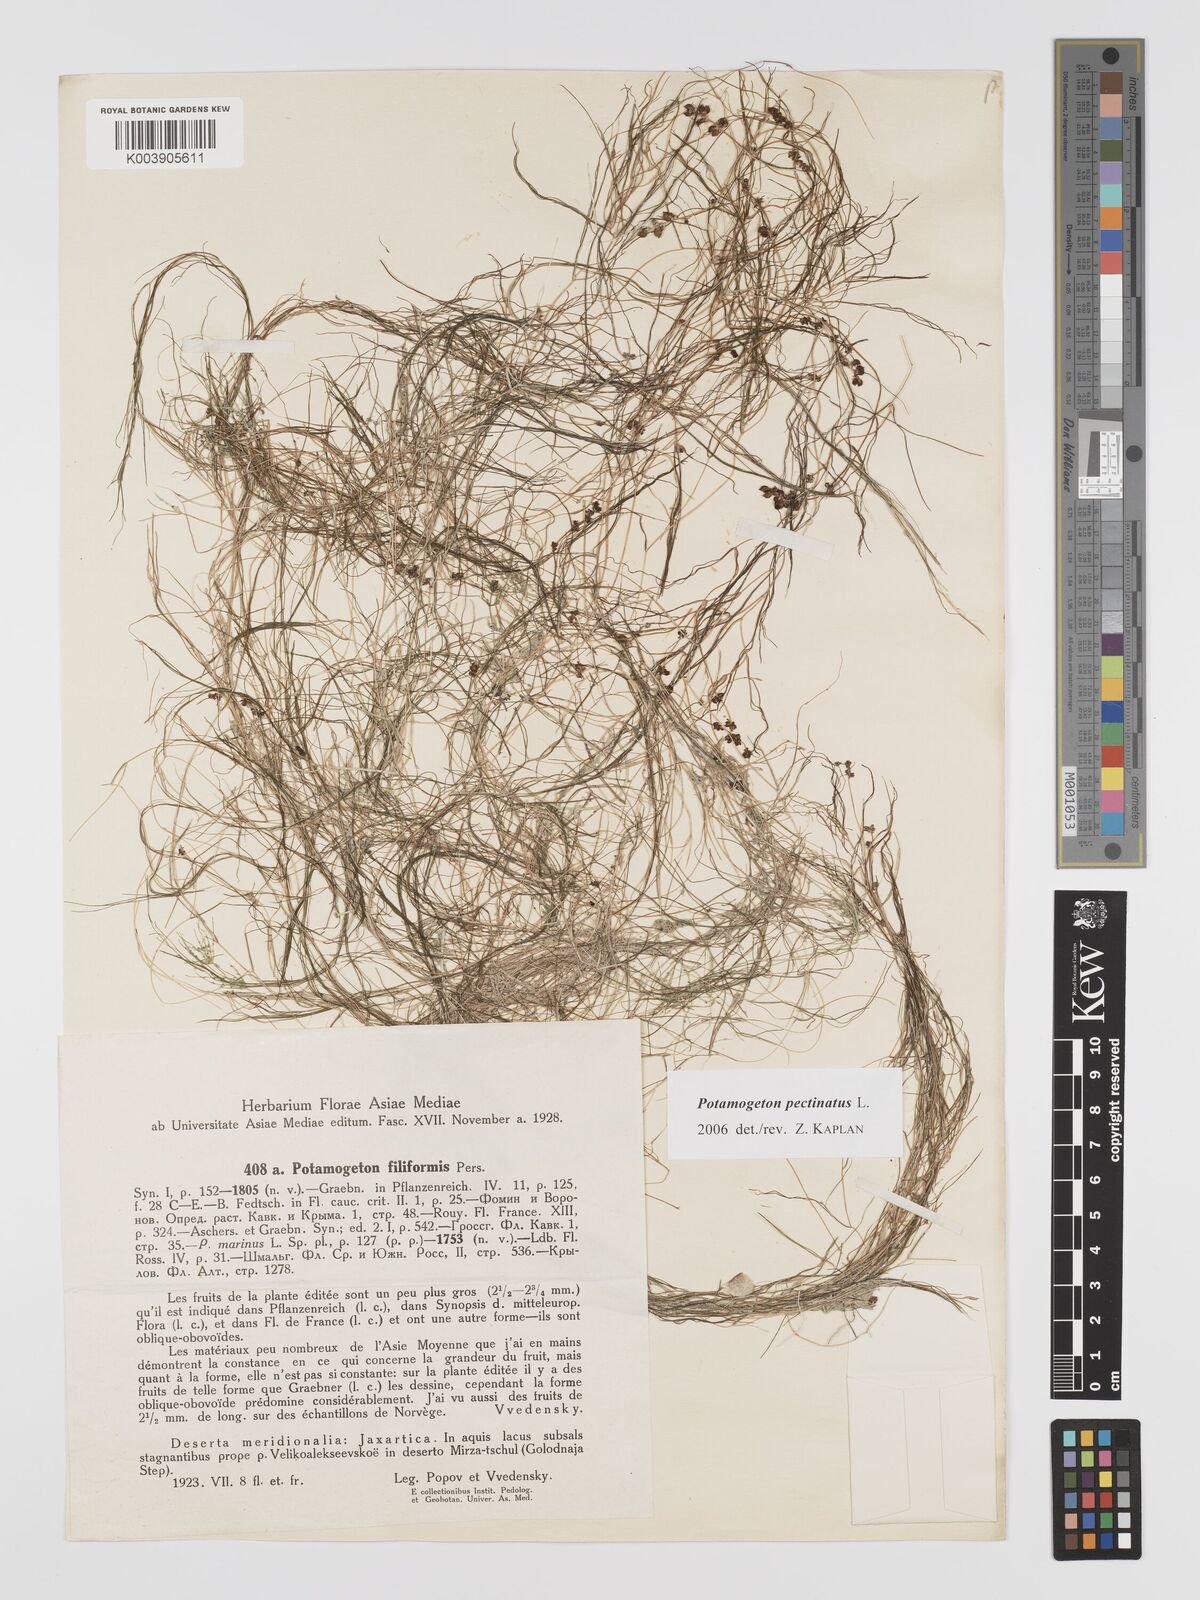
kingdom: Plantae
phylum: Tracheophyta
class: Liliopsida
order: Alismatales
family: Potamogetonaceae
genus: Stuckenia
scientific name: Stuckenia pectinata
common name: Sago pondweed
